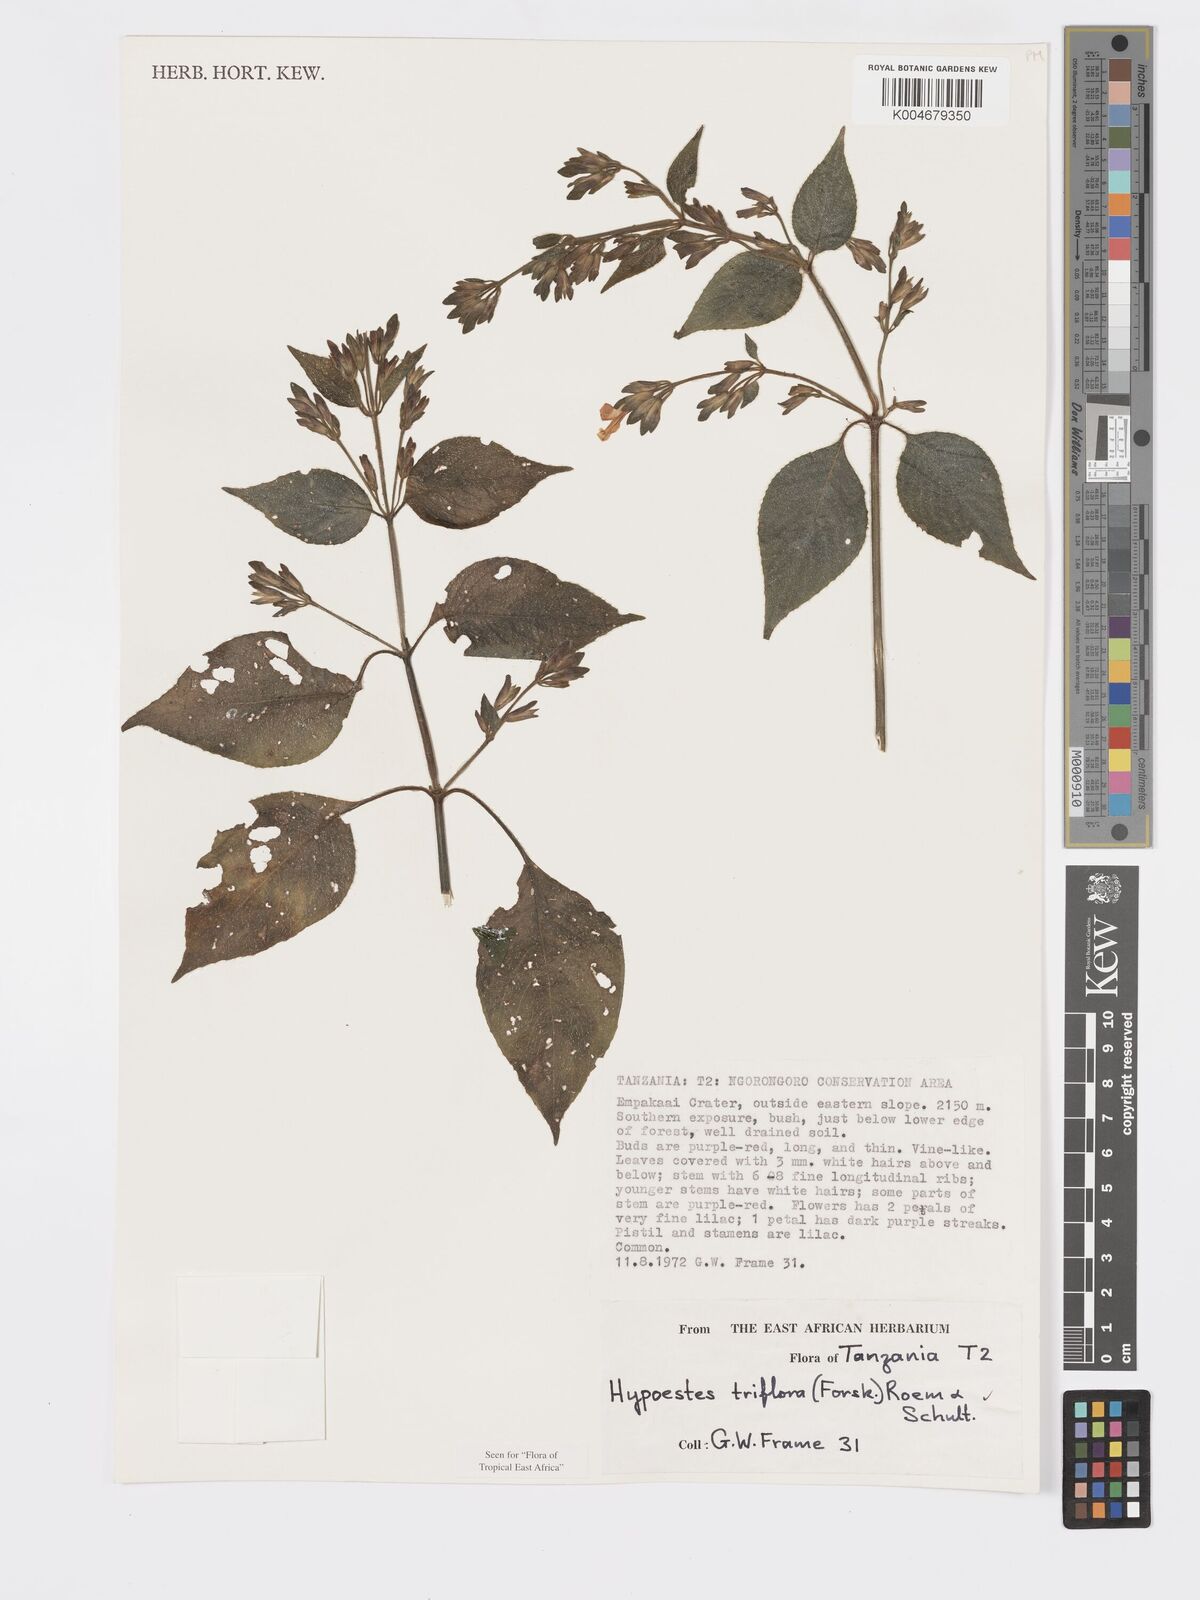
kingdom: Plantae
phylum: Tracheophyta
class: Magnoliopsida
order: Lamiales
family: Acanthaceae
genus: Hypoestes
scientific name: Hypoestes triflora
